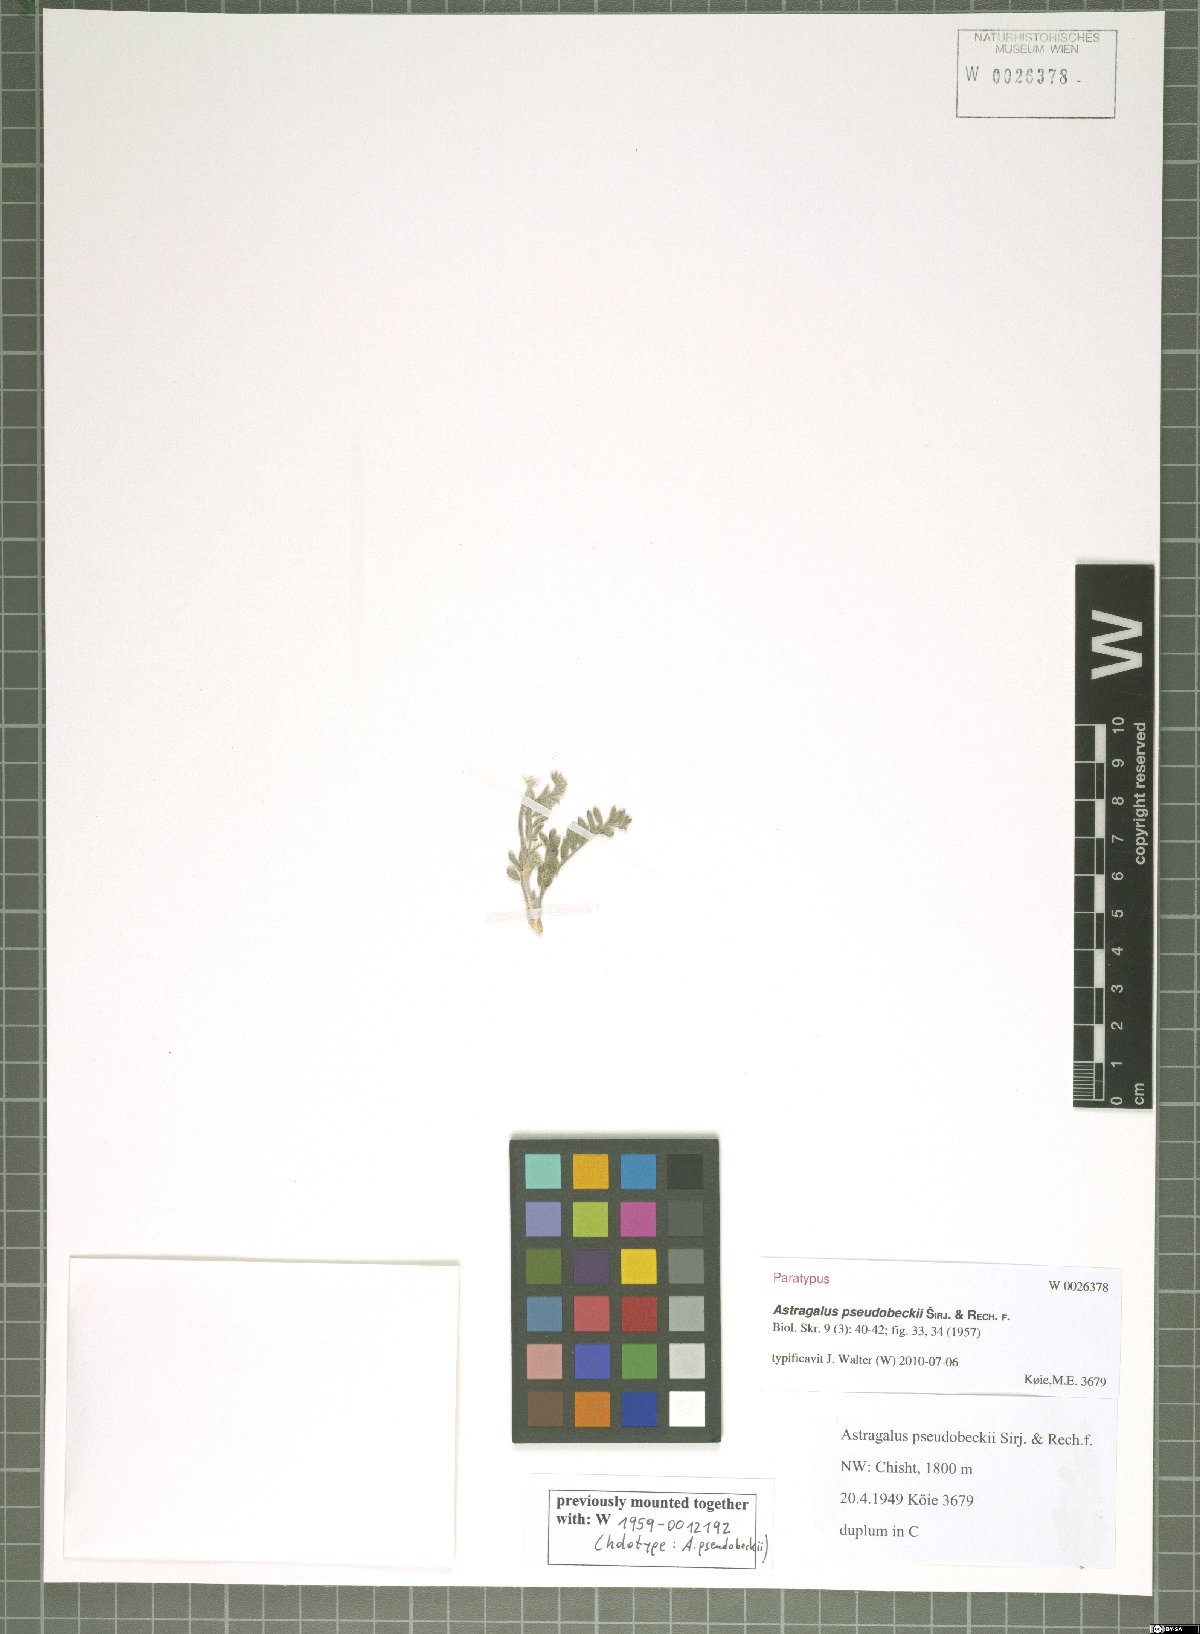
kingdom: Plantae
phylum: Tracheophyta
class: Magnoliopsida
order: Fabales
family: Fabaceae
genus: Astragalus
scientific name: Astragalus pseudobeckii
